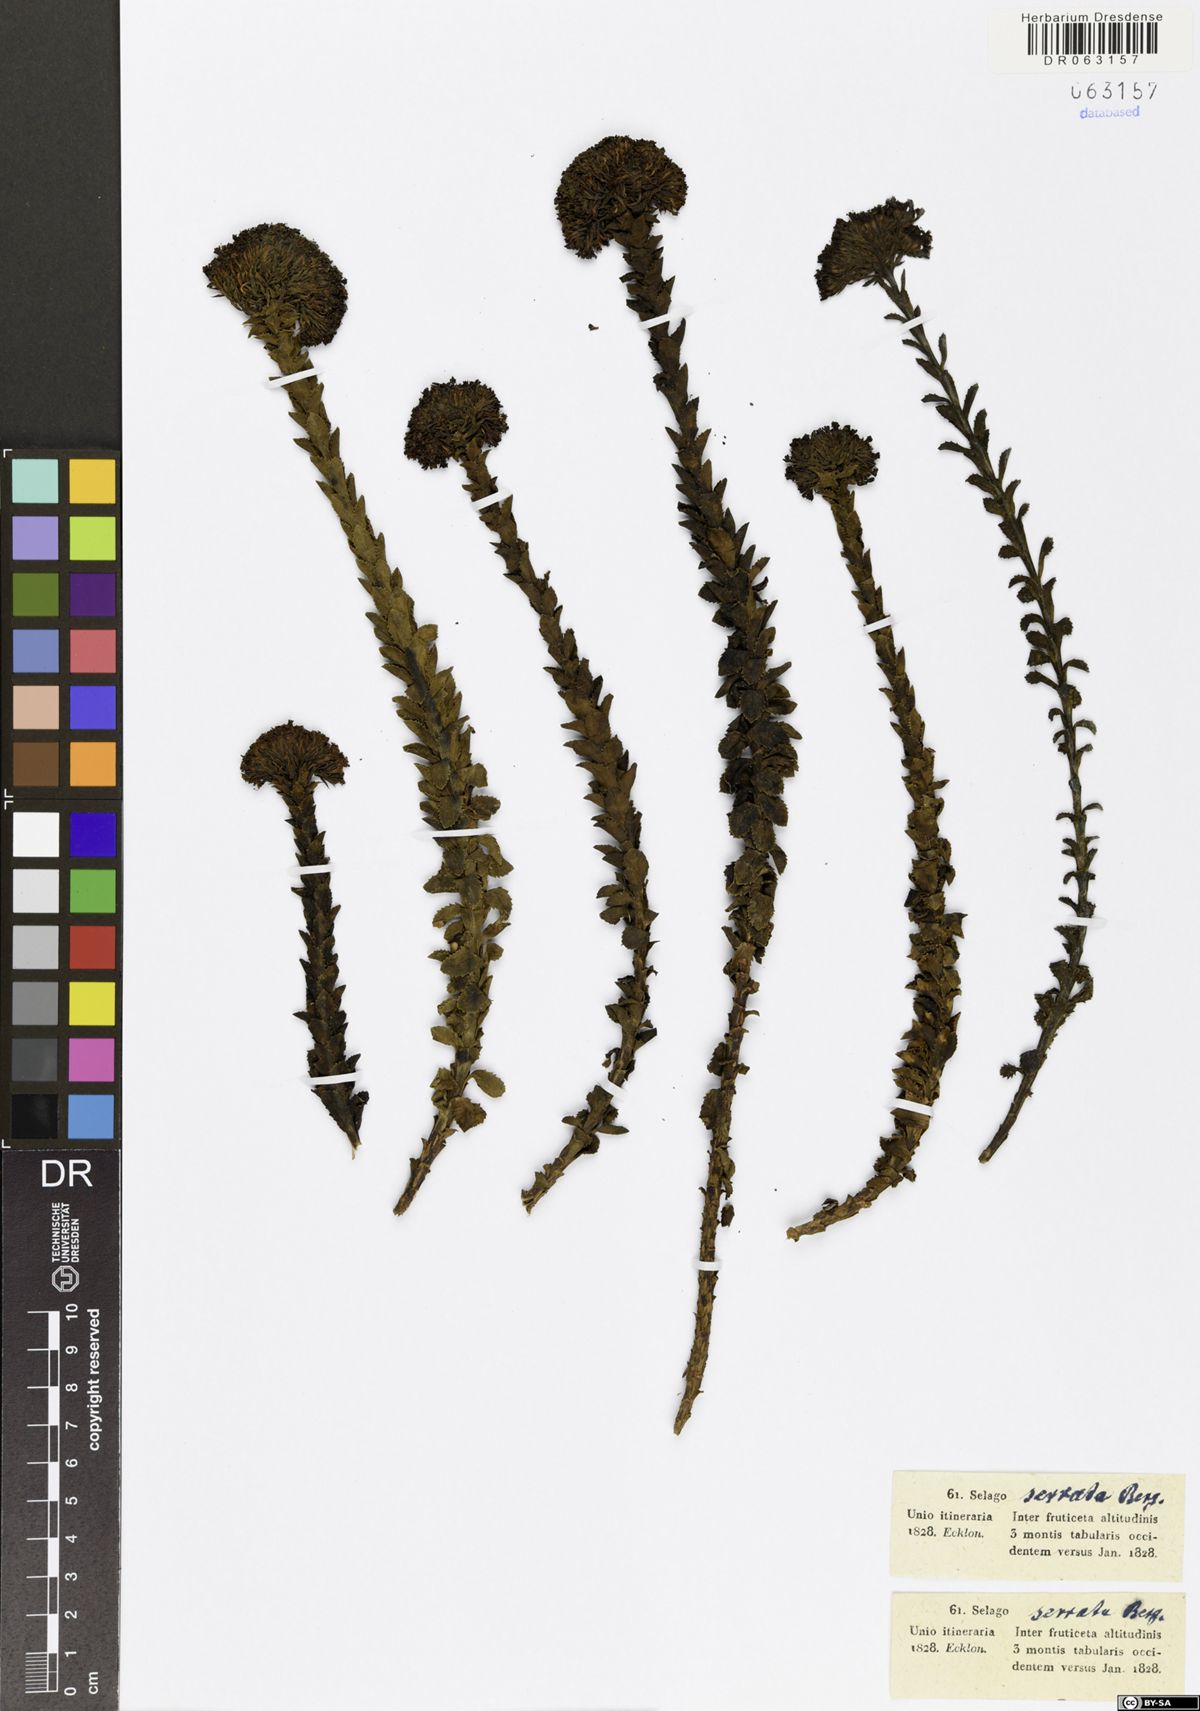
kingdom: Plantae
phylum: Tracheophyta
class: Magnoliopsida
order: Lamiales
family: Scrophulariaceae
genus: Pseudoselago
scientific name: Pseudoselago serrata
